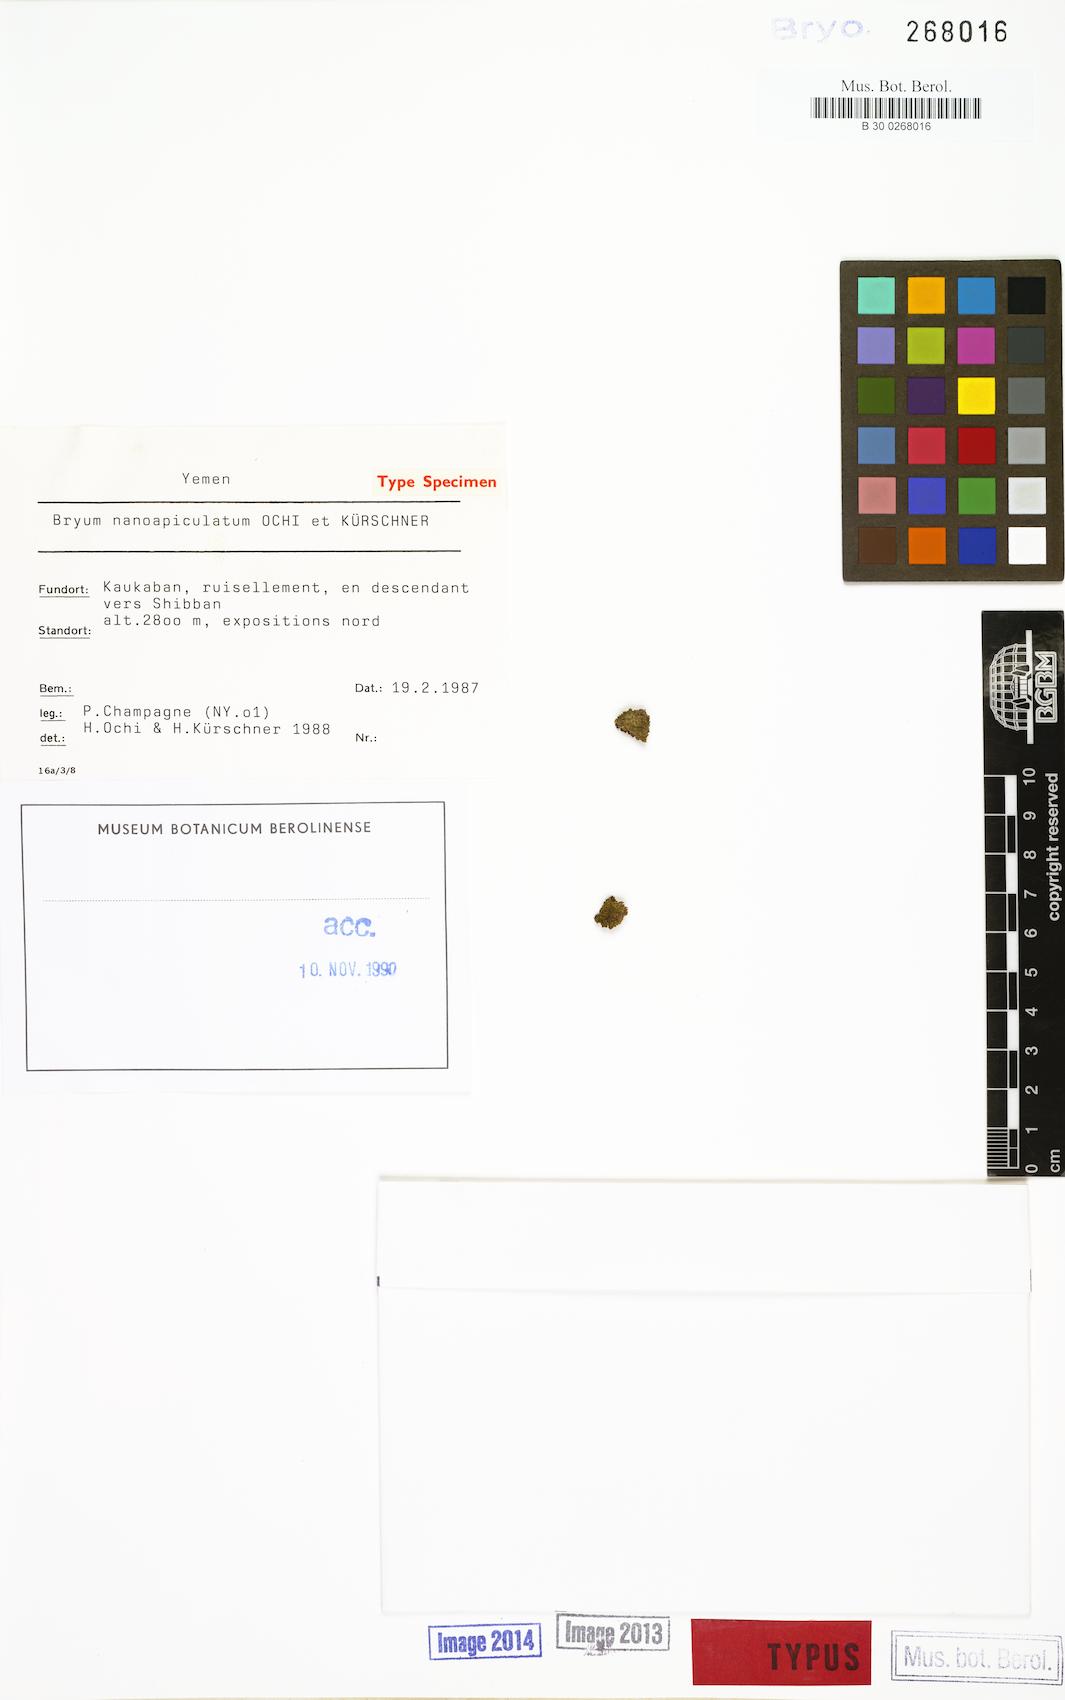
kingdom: Plantae
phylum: Bryophyta
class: Bryopsida
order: Bryales
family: Bryaceae
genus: Gemmabryum
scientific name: Gemmabryum nanoapiculatum
